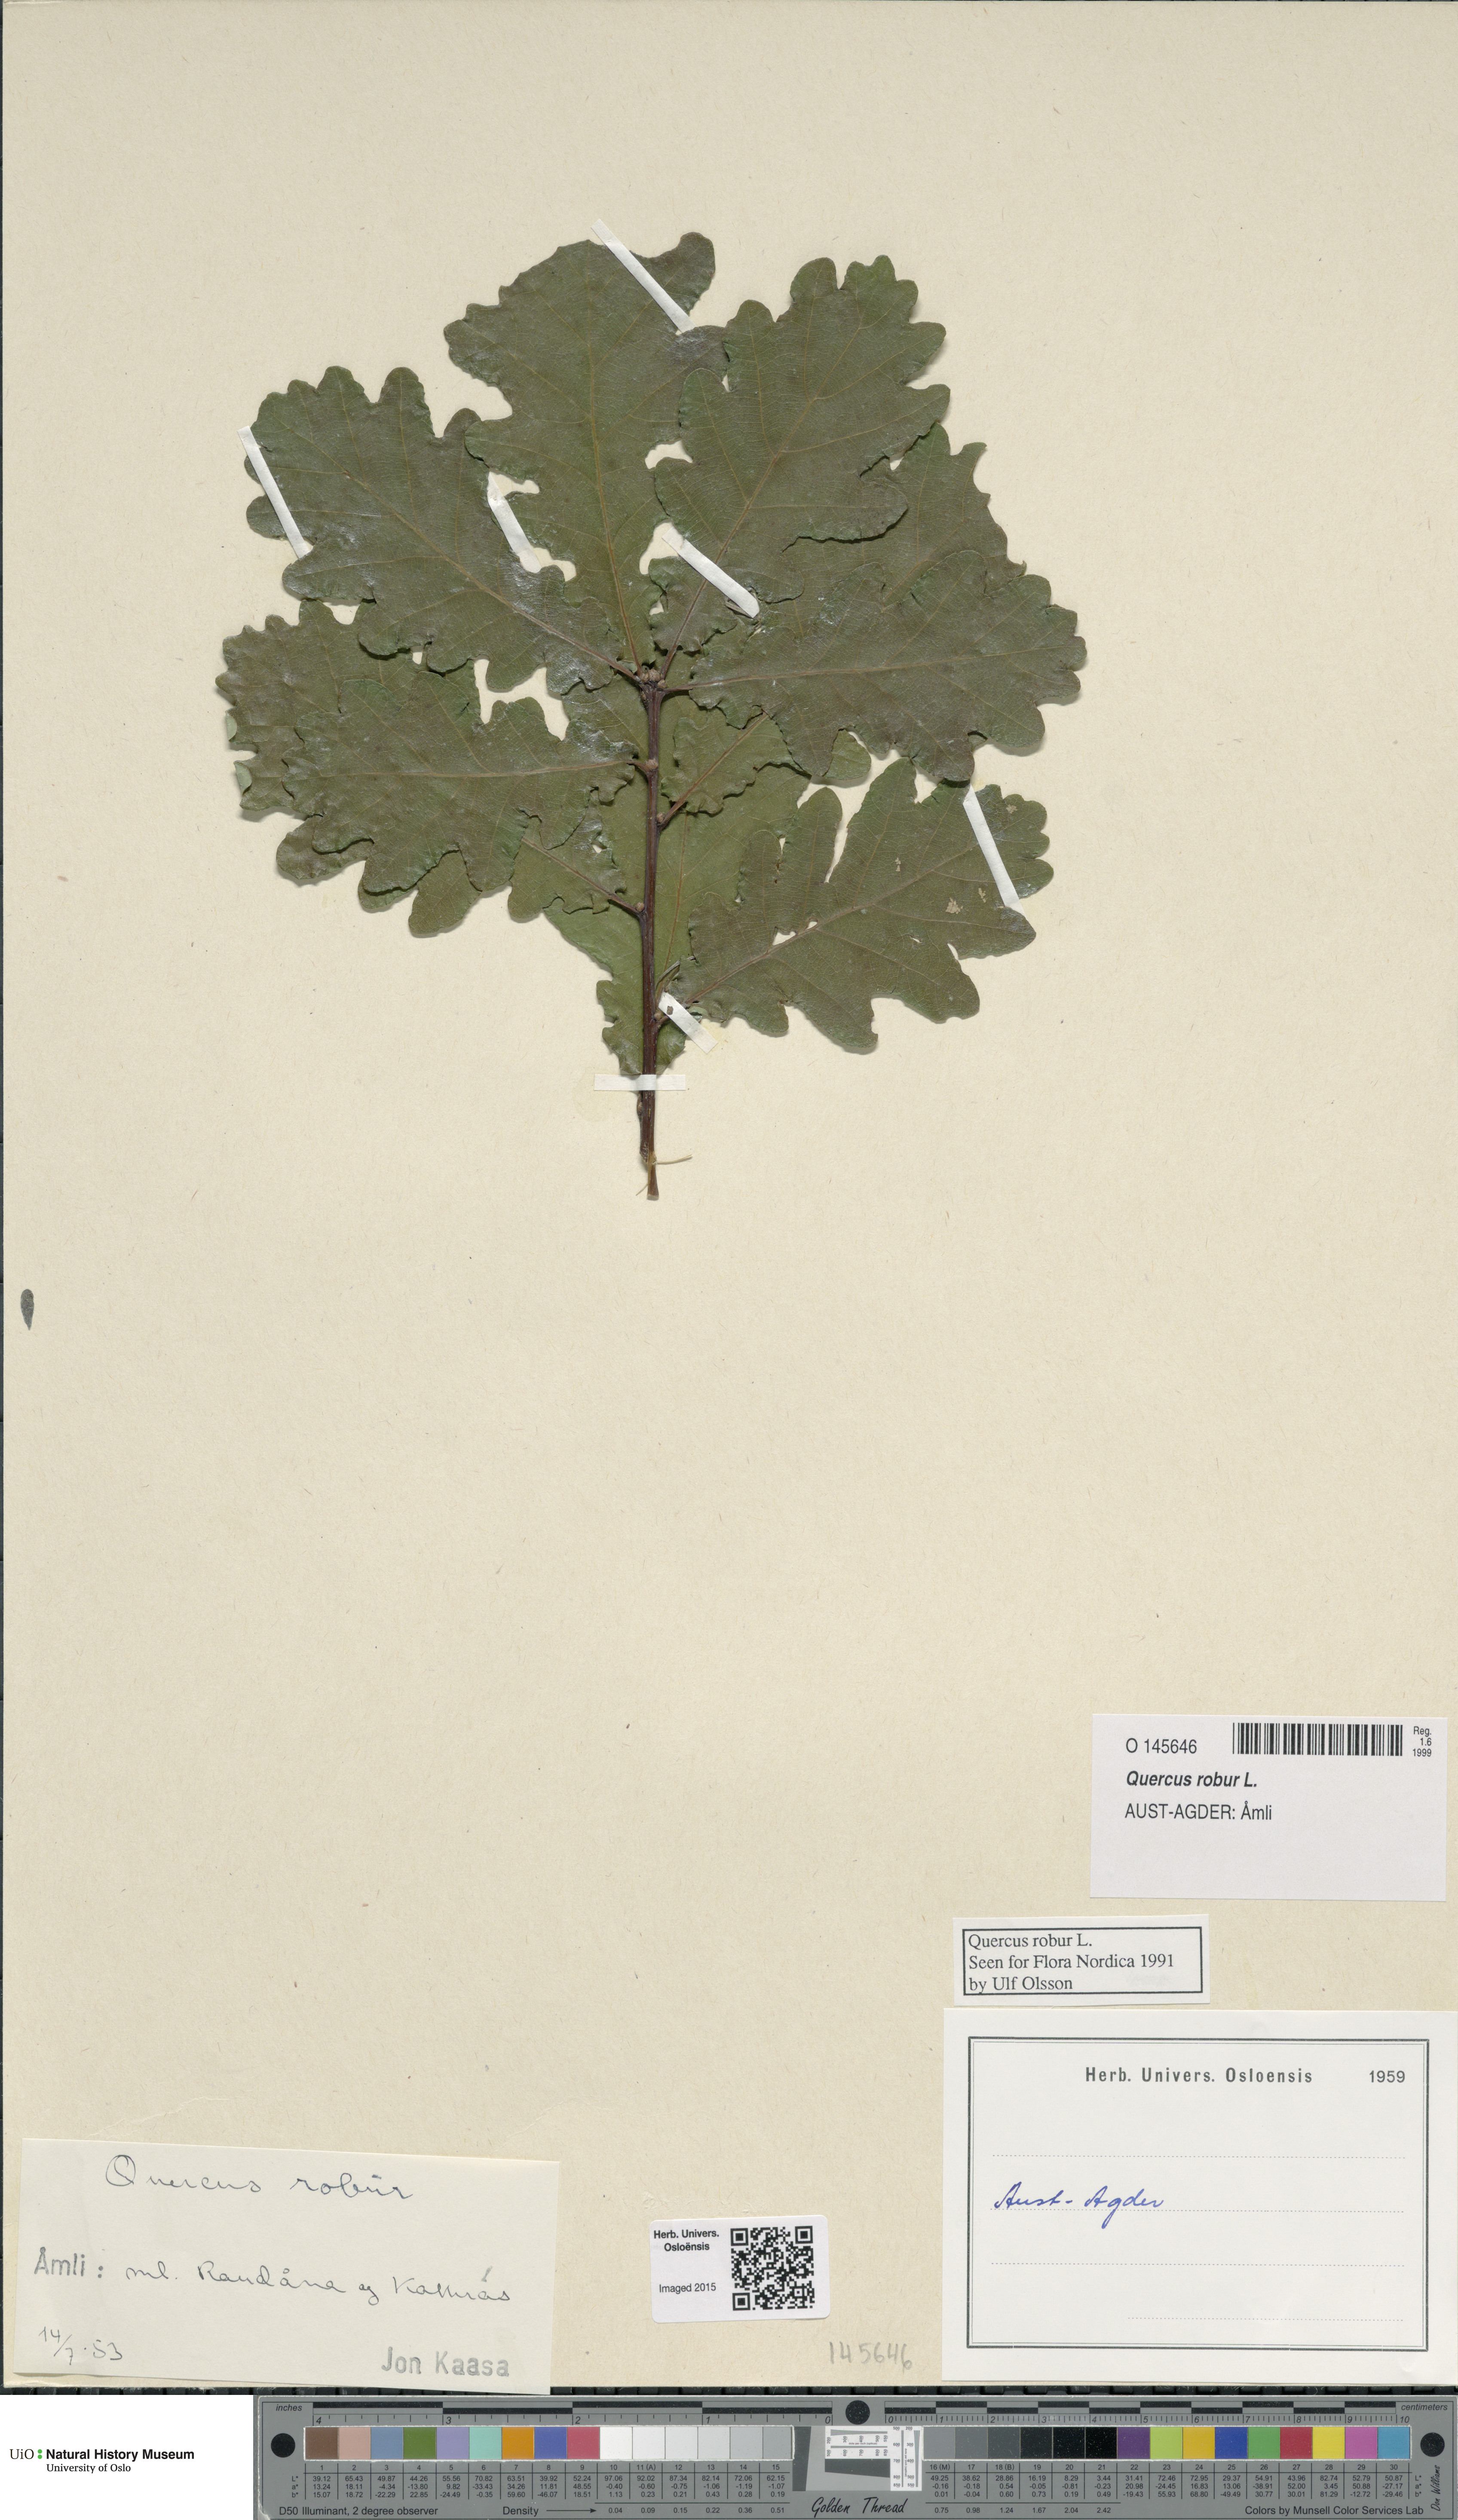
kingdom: Plantae
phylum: Tracheophyta
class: Magnoliopsida
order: Fagales
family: Fagaceae
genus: Quercus
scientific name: Quercus robur
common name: Pedunculate oak
